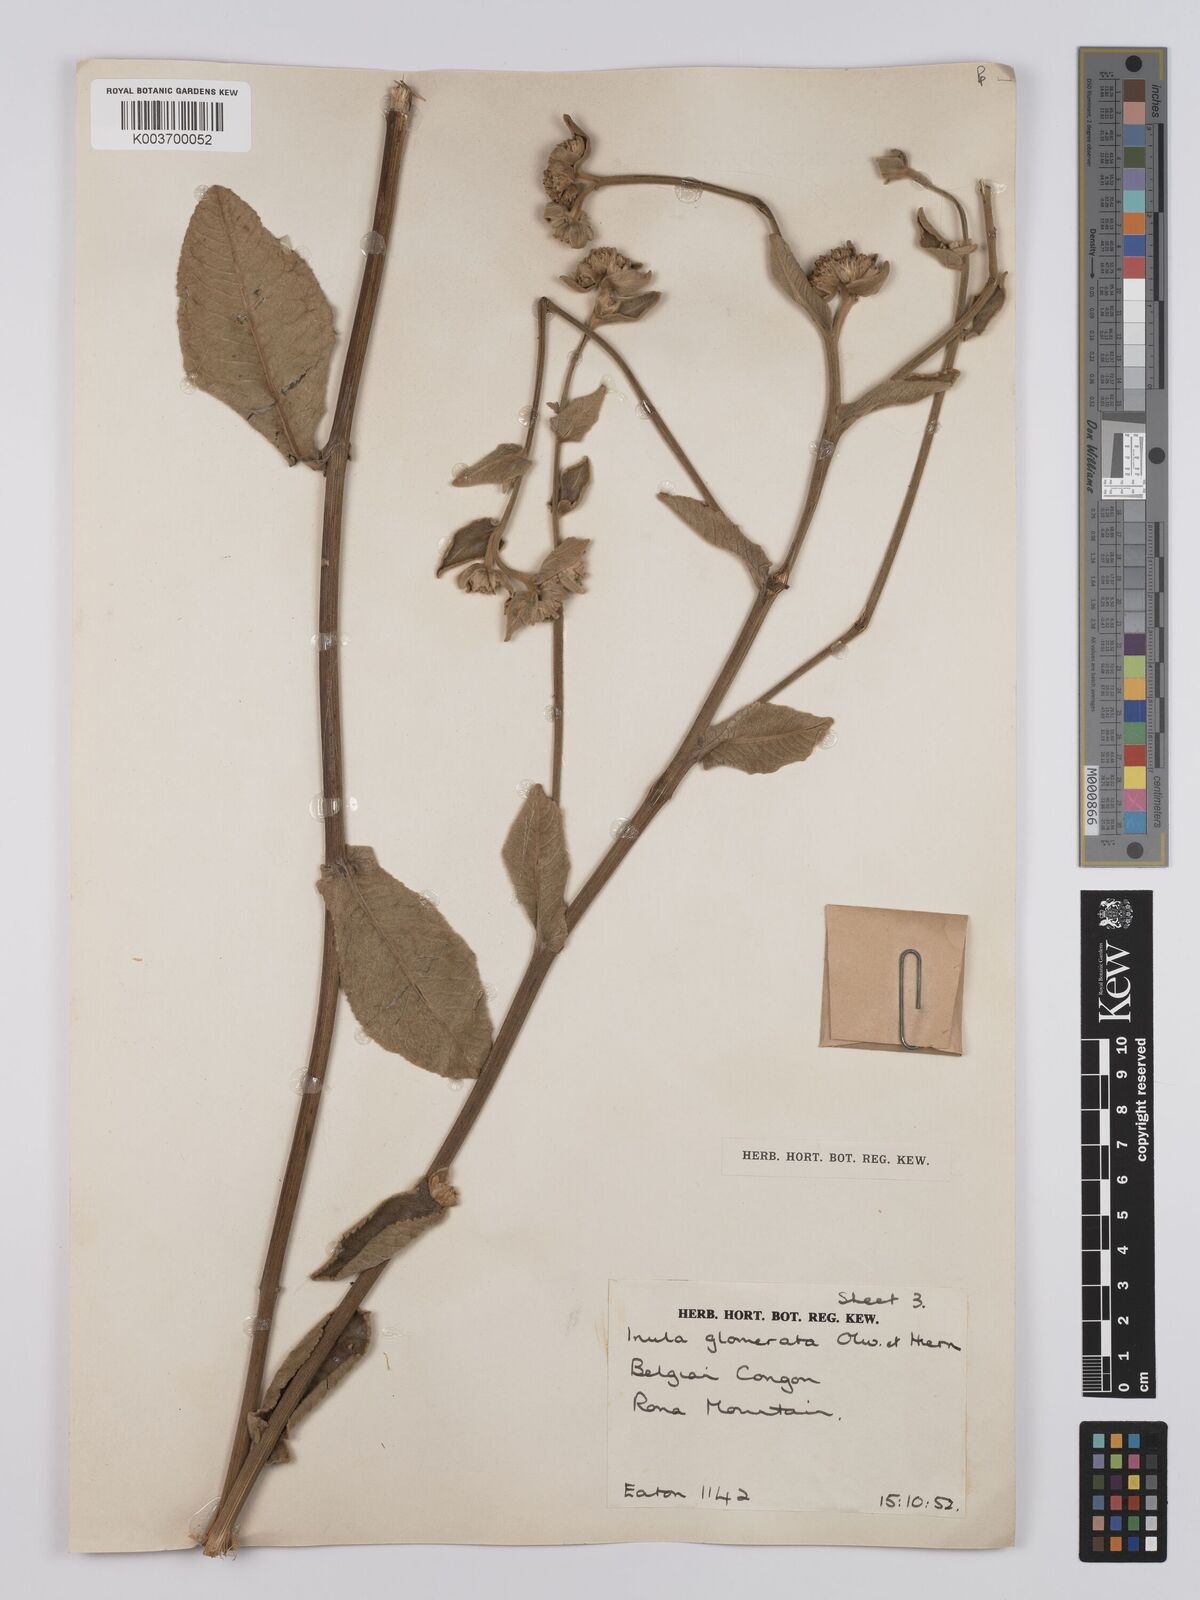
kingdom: Plantae
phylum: Tracheophyta
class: Magnoliopsida
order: Asterales
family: Asteraceae
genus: Inula
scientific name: Inula glomerata
